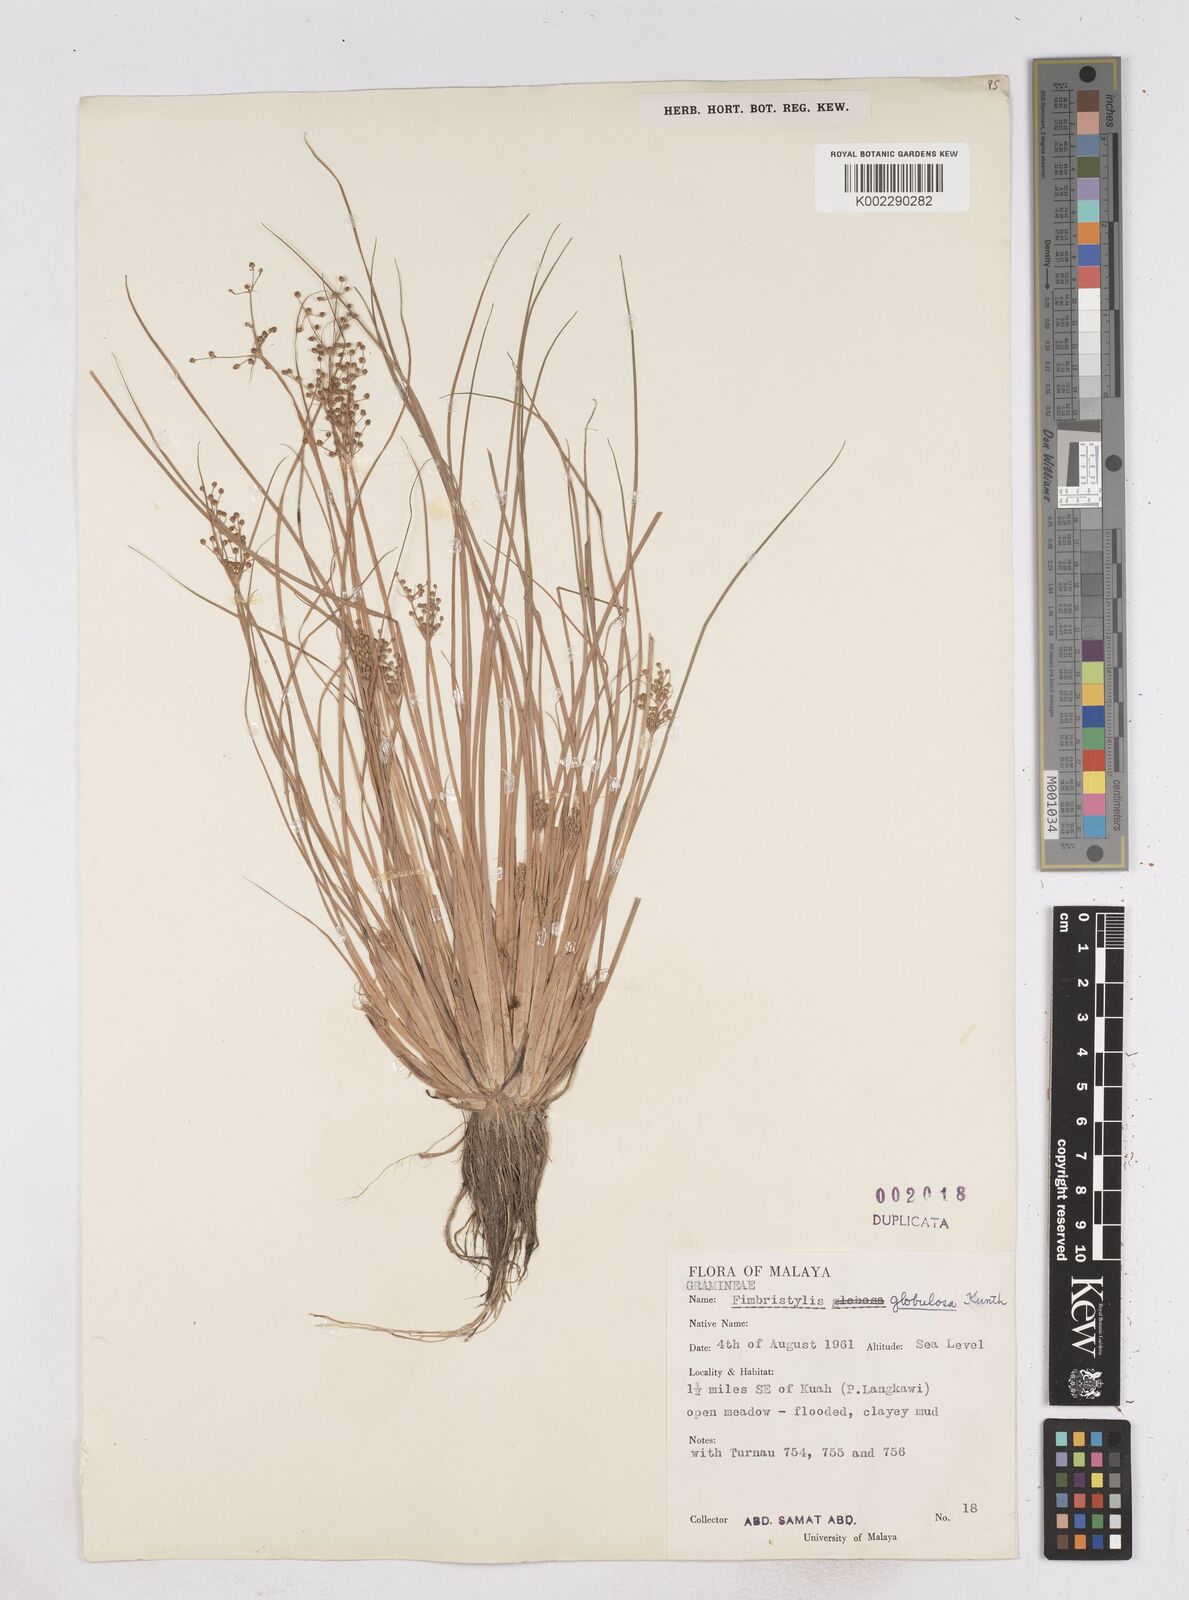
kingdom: Plantae
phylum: Tracheophyta
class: Liliopsida
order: Poales
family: Cyperaceae
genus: Fimbristylis
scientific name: Fimbristylis umbellaris
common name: Globular fimbristylis
